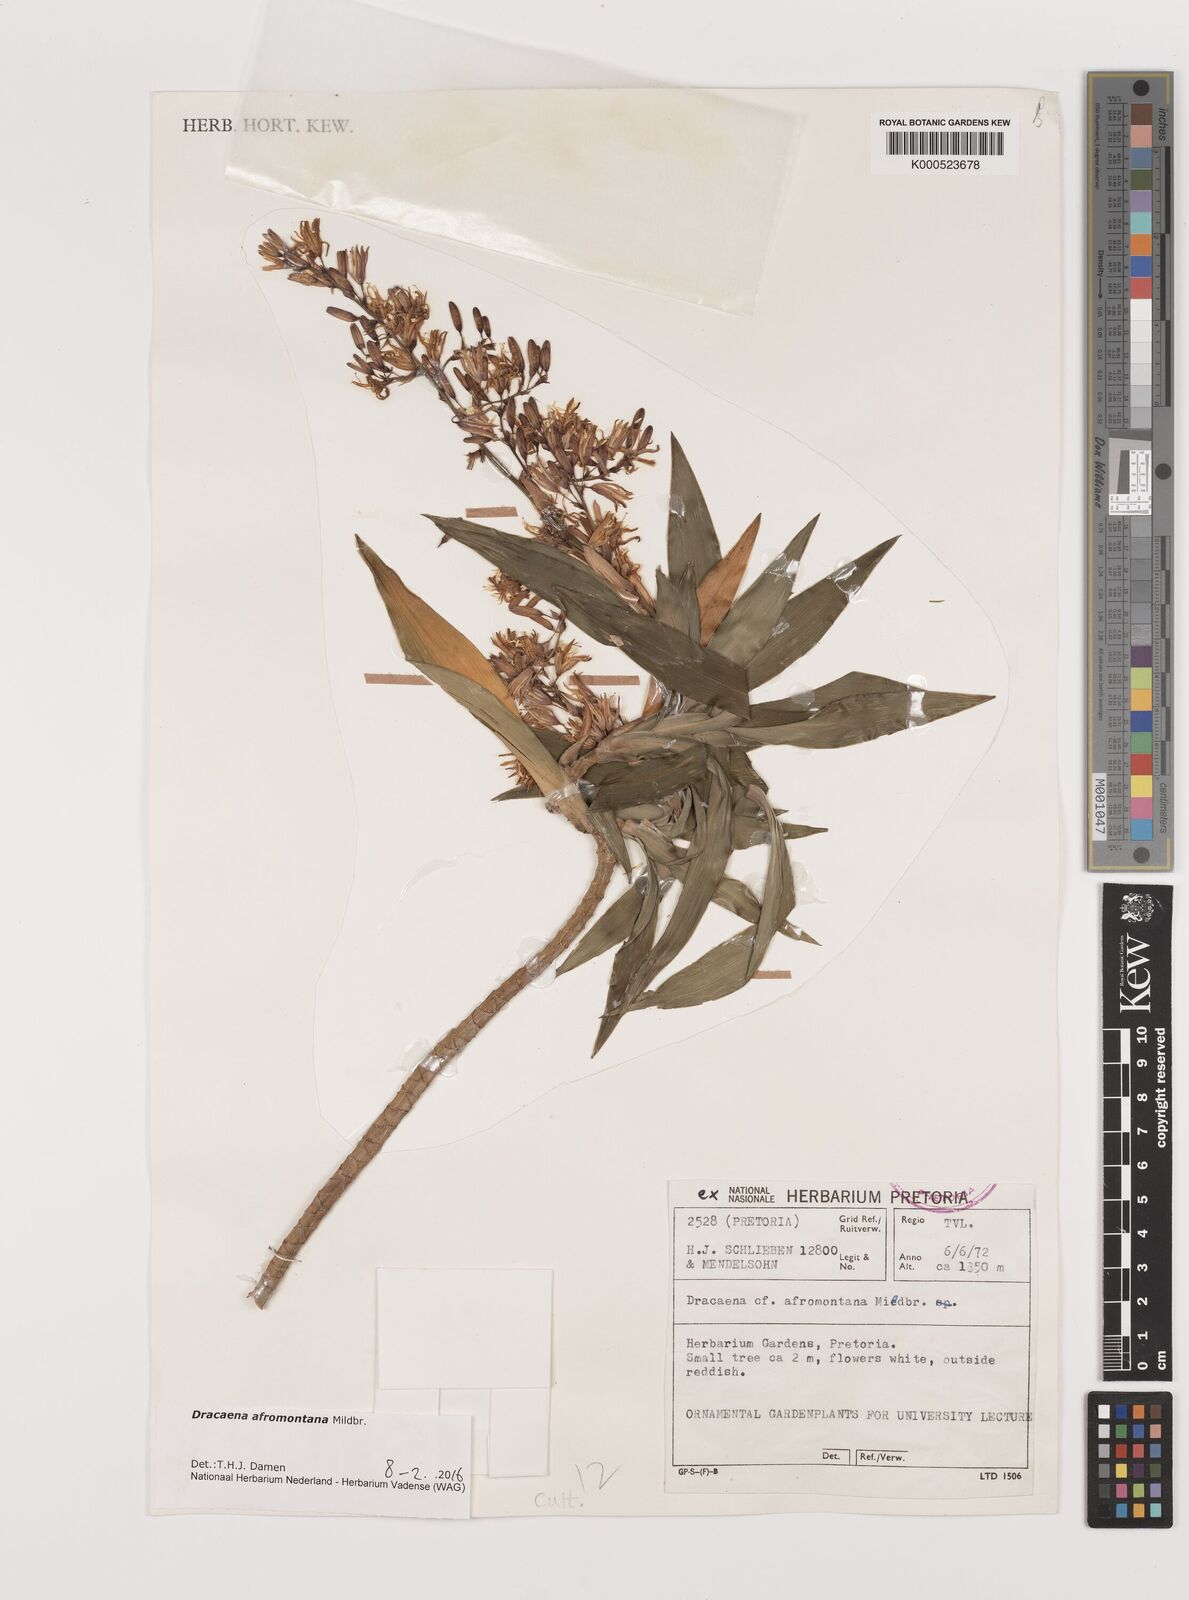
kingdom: Plantae
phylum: Tracheophyta
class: Liliopsida
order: Asparagales
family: Asparagaceae
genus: Dracaena
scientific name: Dracaena afromontana
